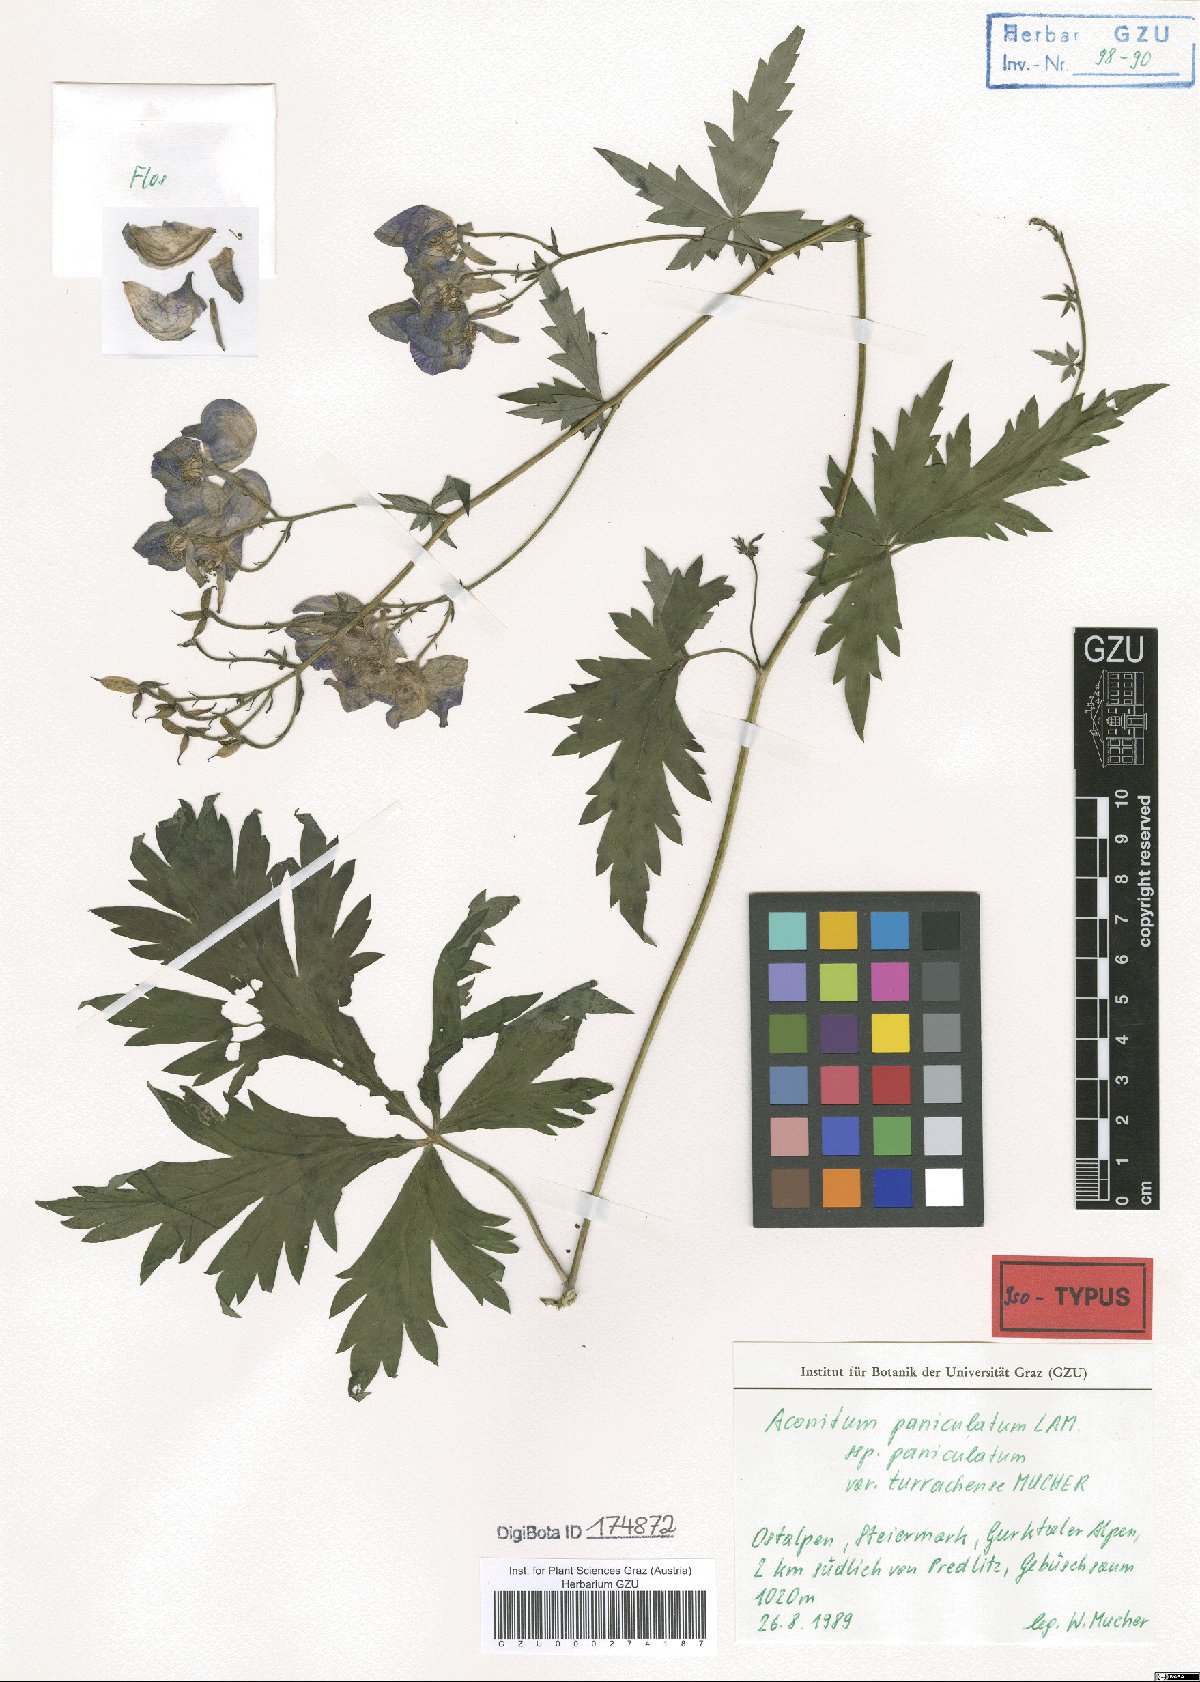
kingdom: Plantae
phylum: Tracheophyta
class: Magnoliopsida
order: Ranunculales
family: Ranunculaceae
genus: Aconitum
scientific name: Aconitum degenii
